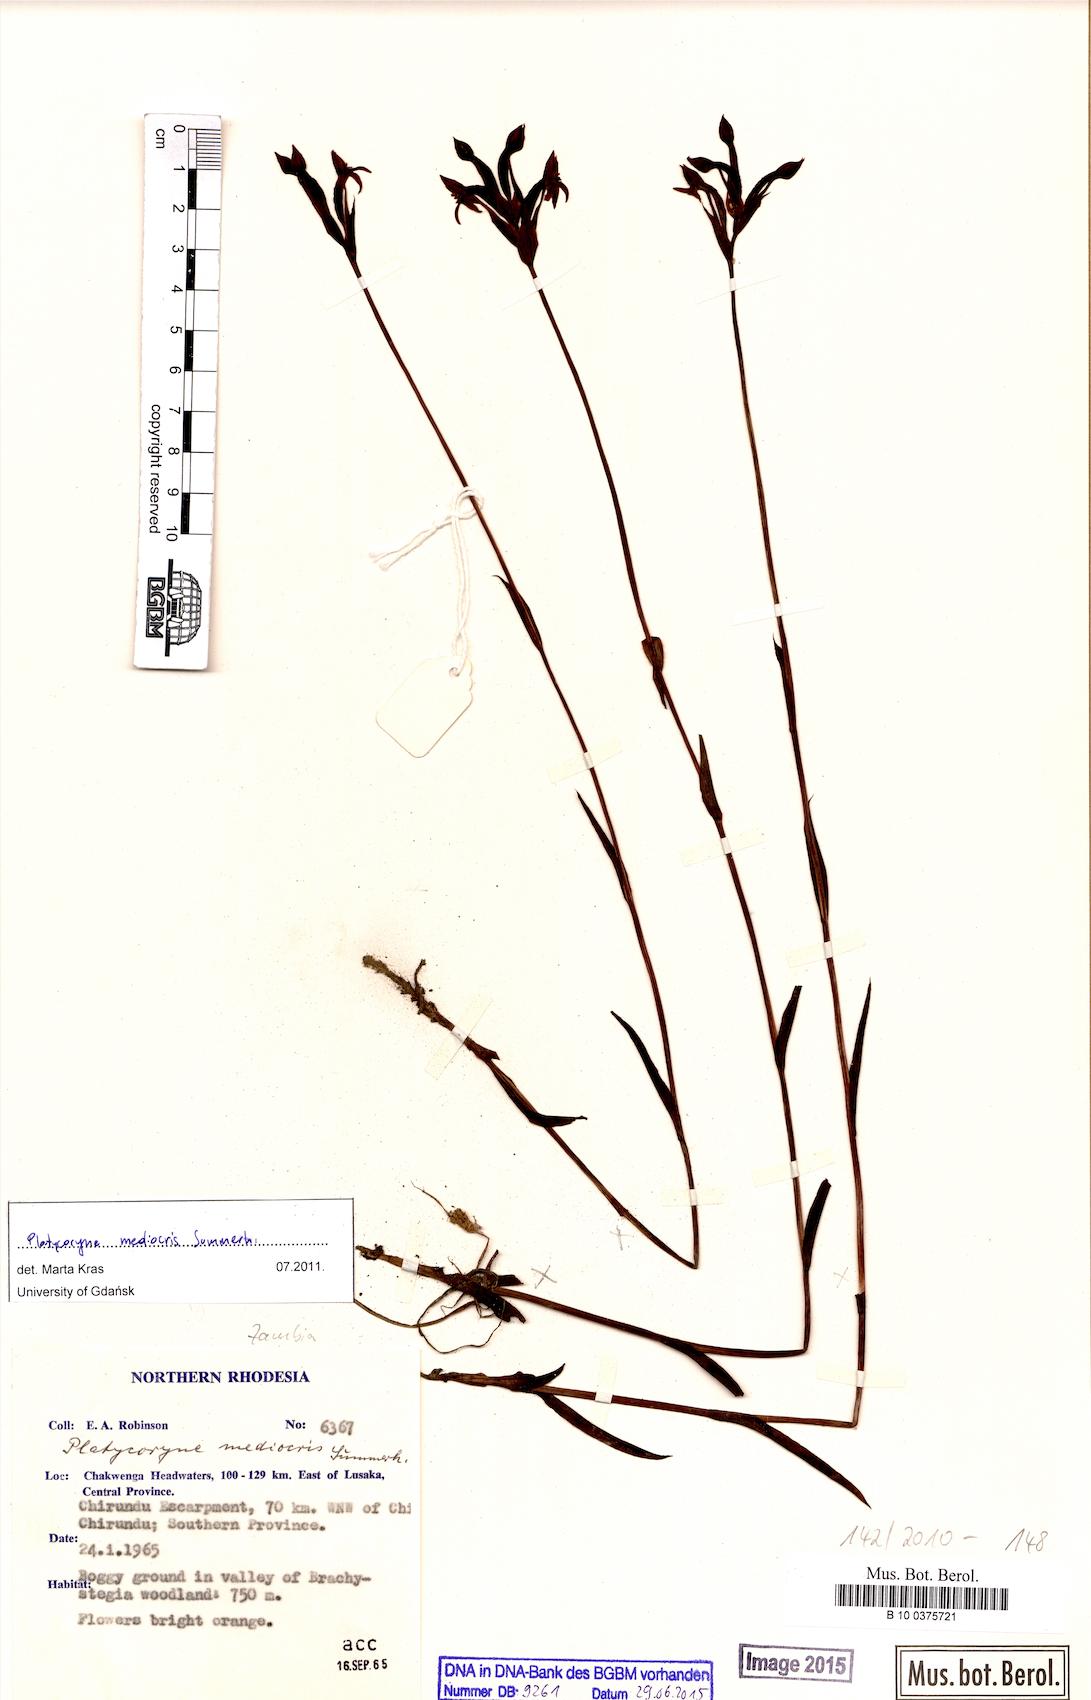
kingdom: Plantae
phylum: Tracheophyta
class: Liliopsida
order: Asparagales
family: Orchidaceae
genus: Platycoryne
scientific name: Platycoryne mediocris
